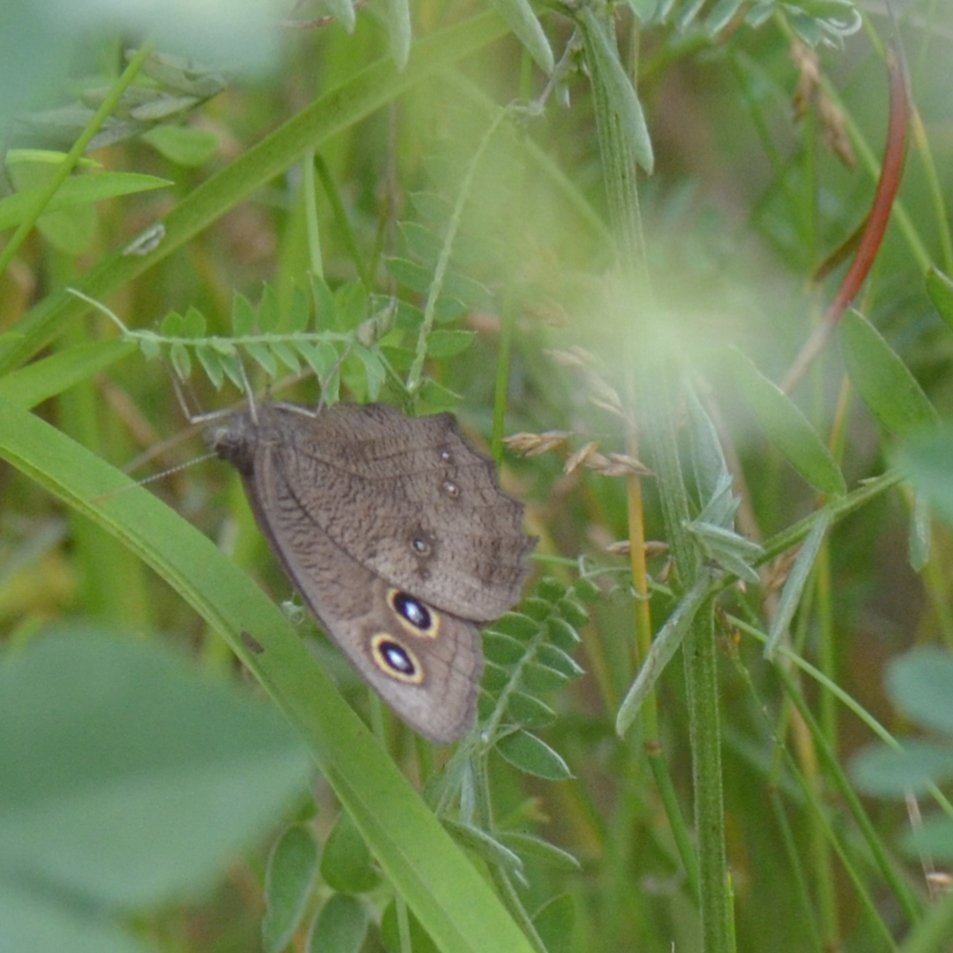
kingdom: Animalia
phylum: Arthropoda
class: Insecta
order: Lepidoptera
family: Nymphalidae
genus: Cercyonis
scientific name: Cercyonis pegala
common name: Common Wood-Nymph
